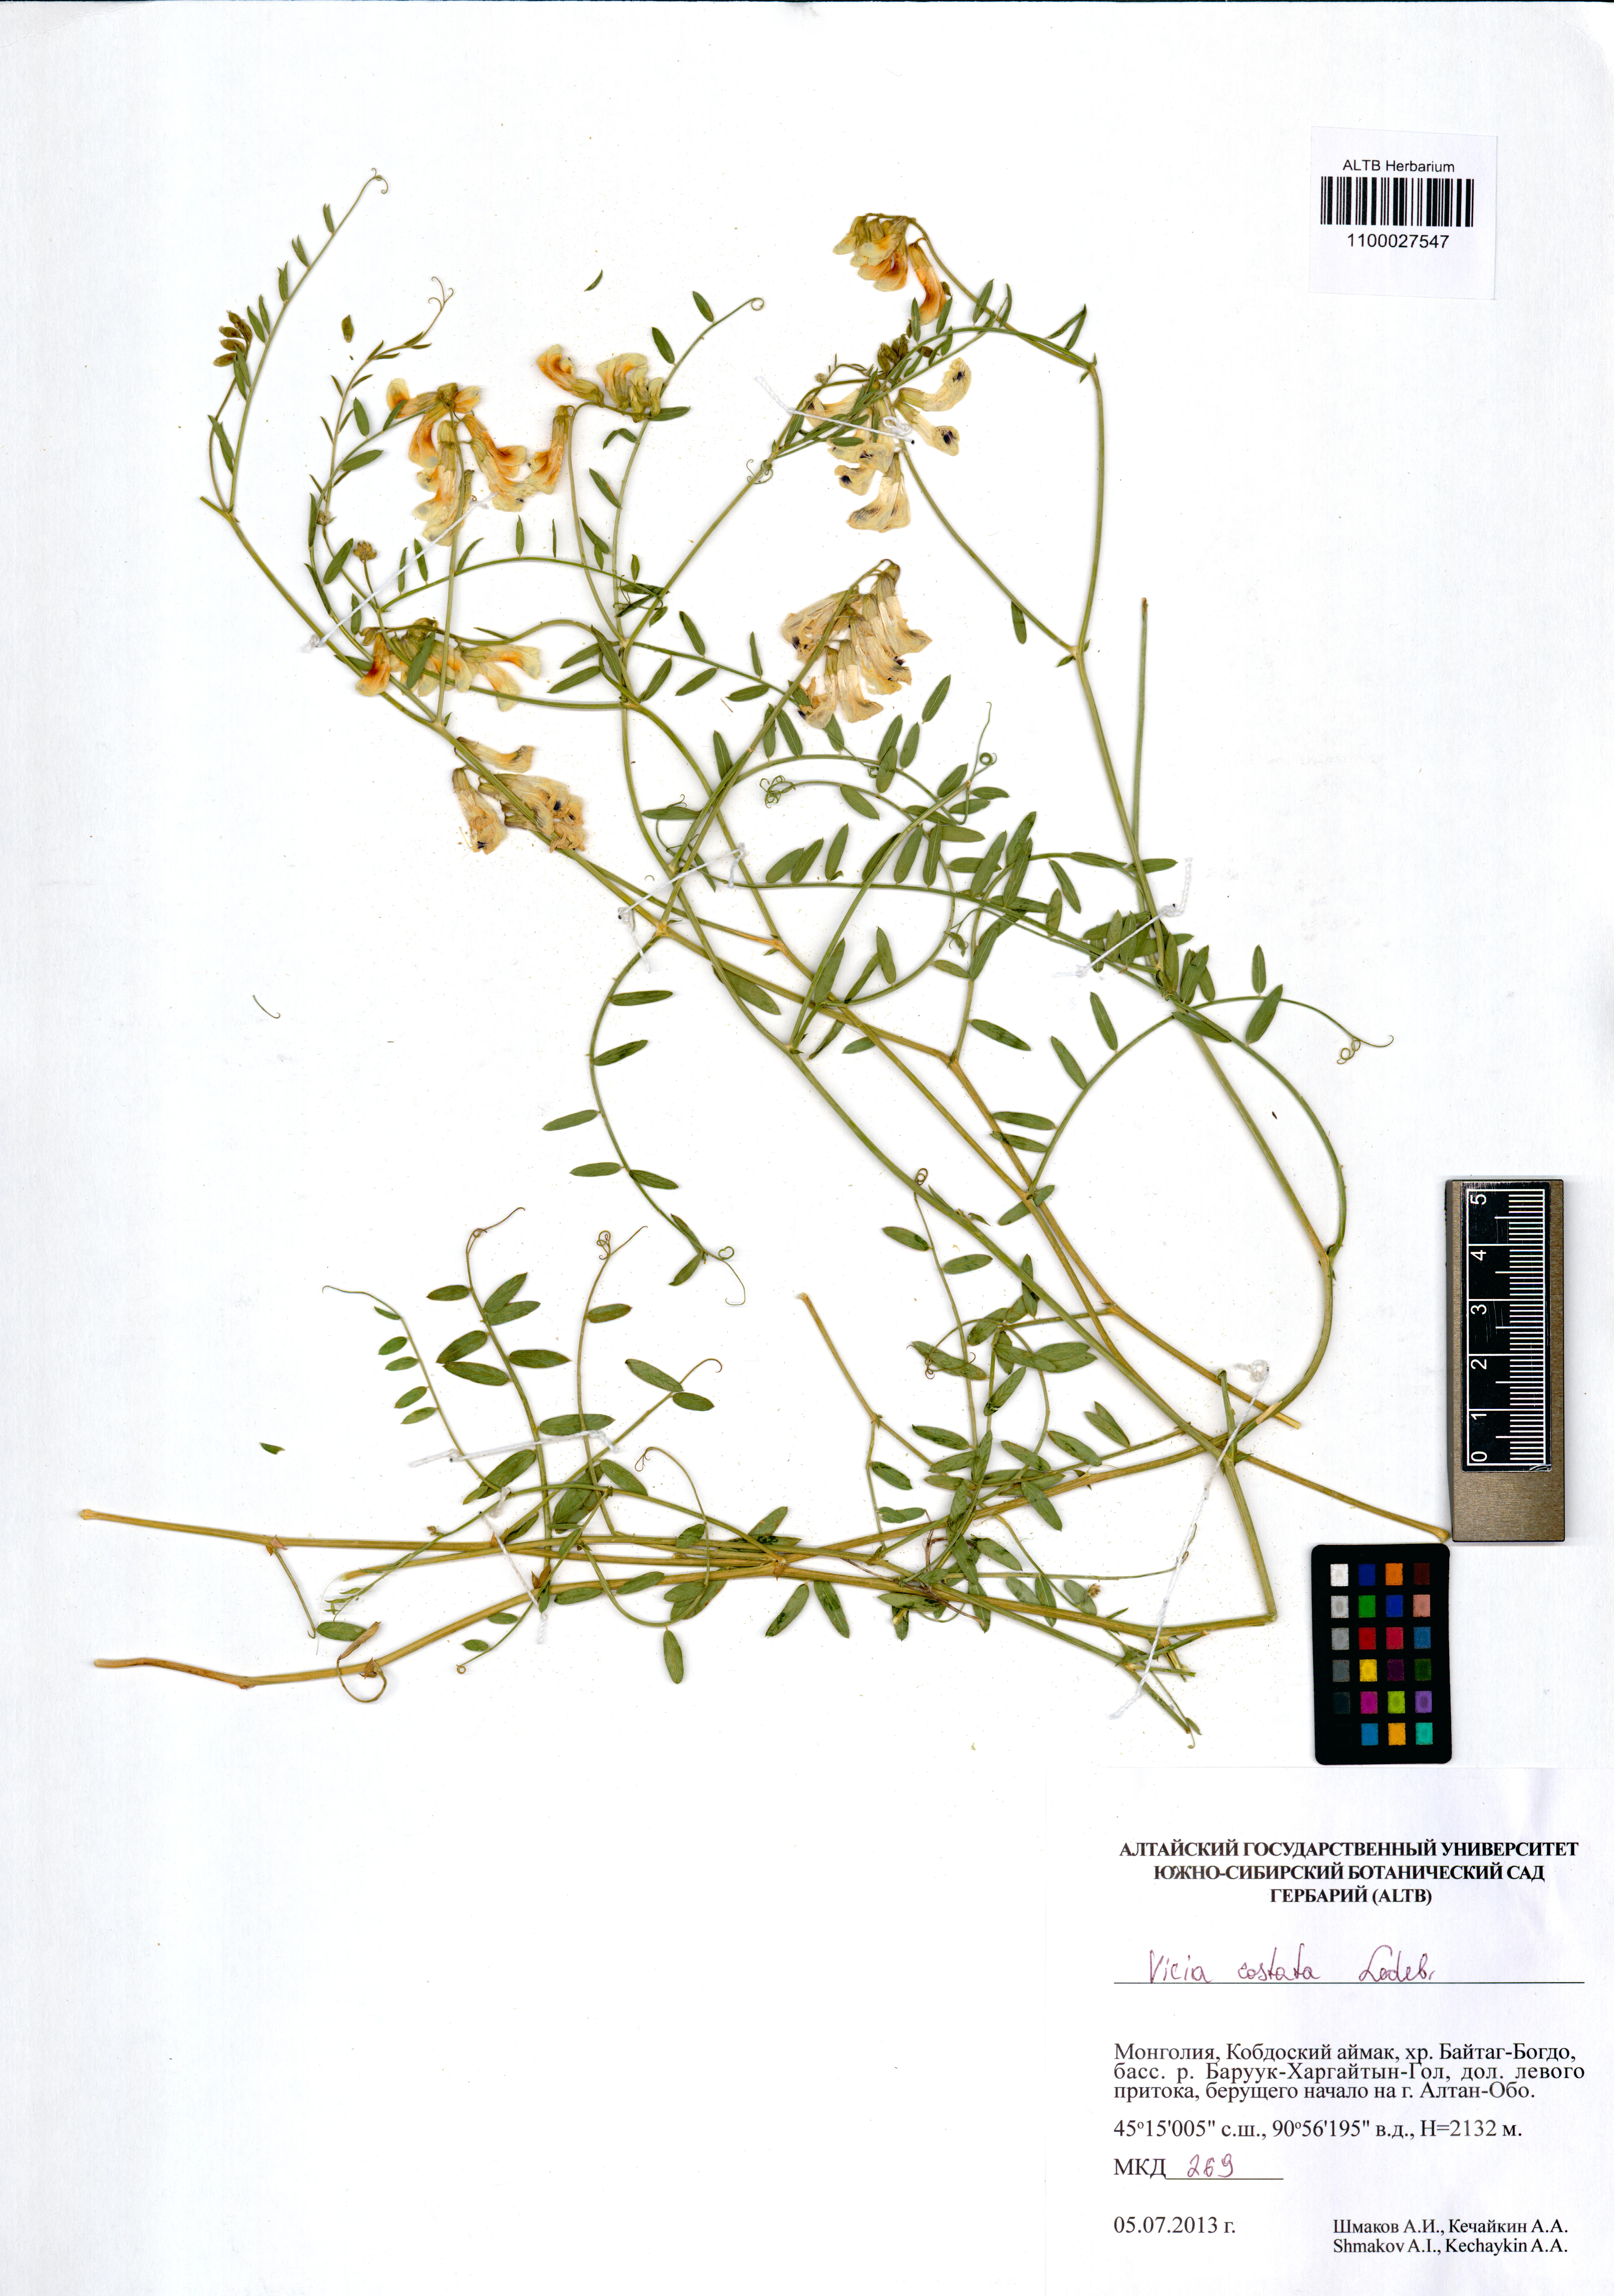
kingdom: Plantae
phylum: Tracheophyta
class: Magnoliopsida
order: Fabales
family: Fabaceae
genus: Vicia
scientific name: Vicia costata
